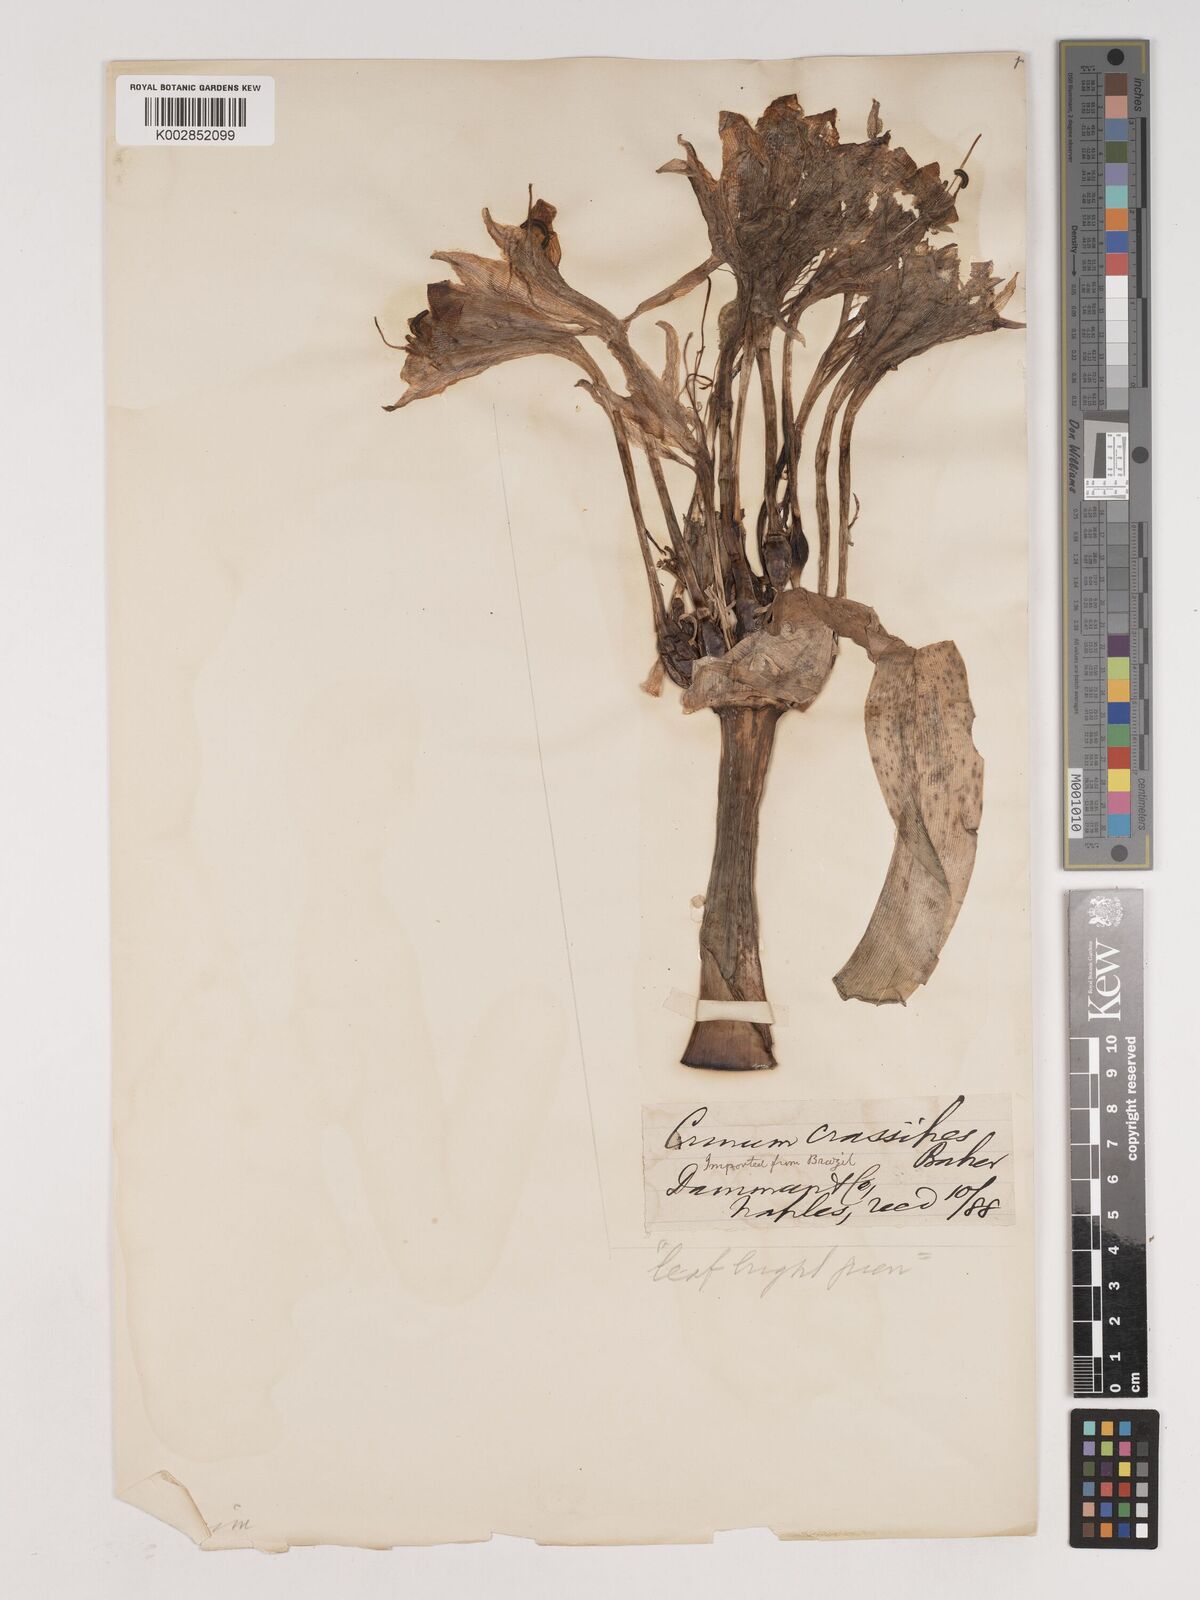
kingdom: Plantae
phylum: Tracheophyta
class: Liliopsida
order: Asparagales
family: Amaryllidaceae
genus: Crinum
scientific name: Crinum variabile
